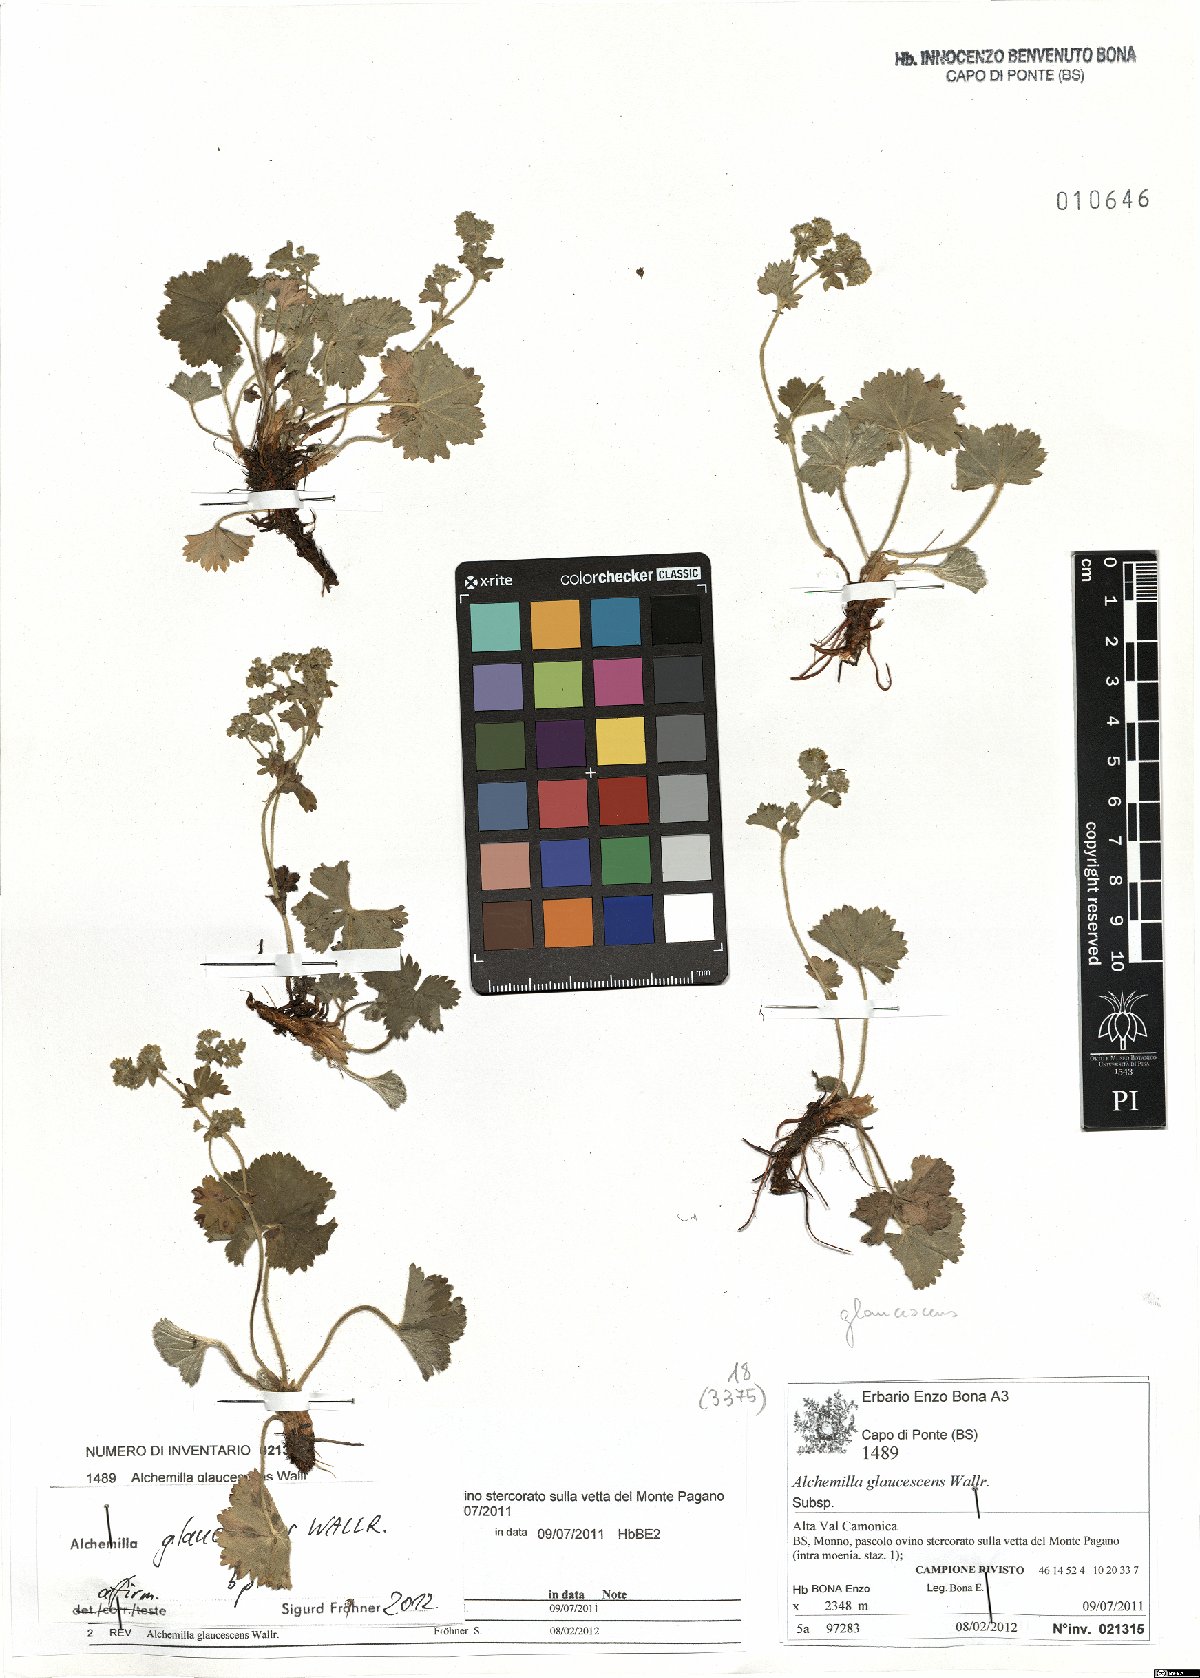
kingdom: Plantae
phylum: Tracheophyta
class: Magnoliopsida
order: Rosales
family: Rosaceae
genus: Alchemilla
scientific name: Alchemilla glaucescens
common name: Silky lady's mantle
